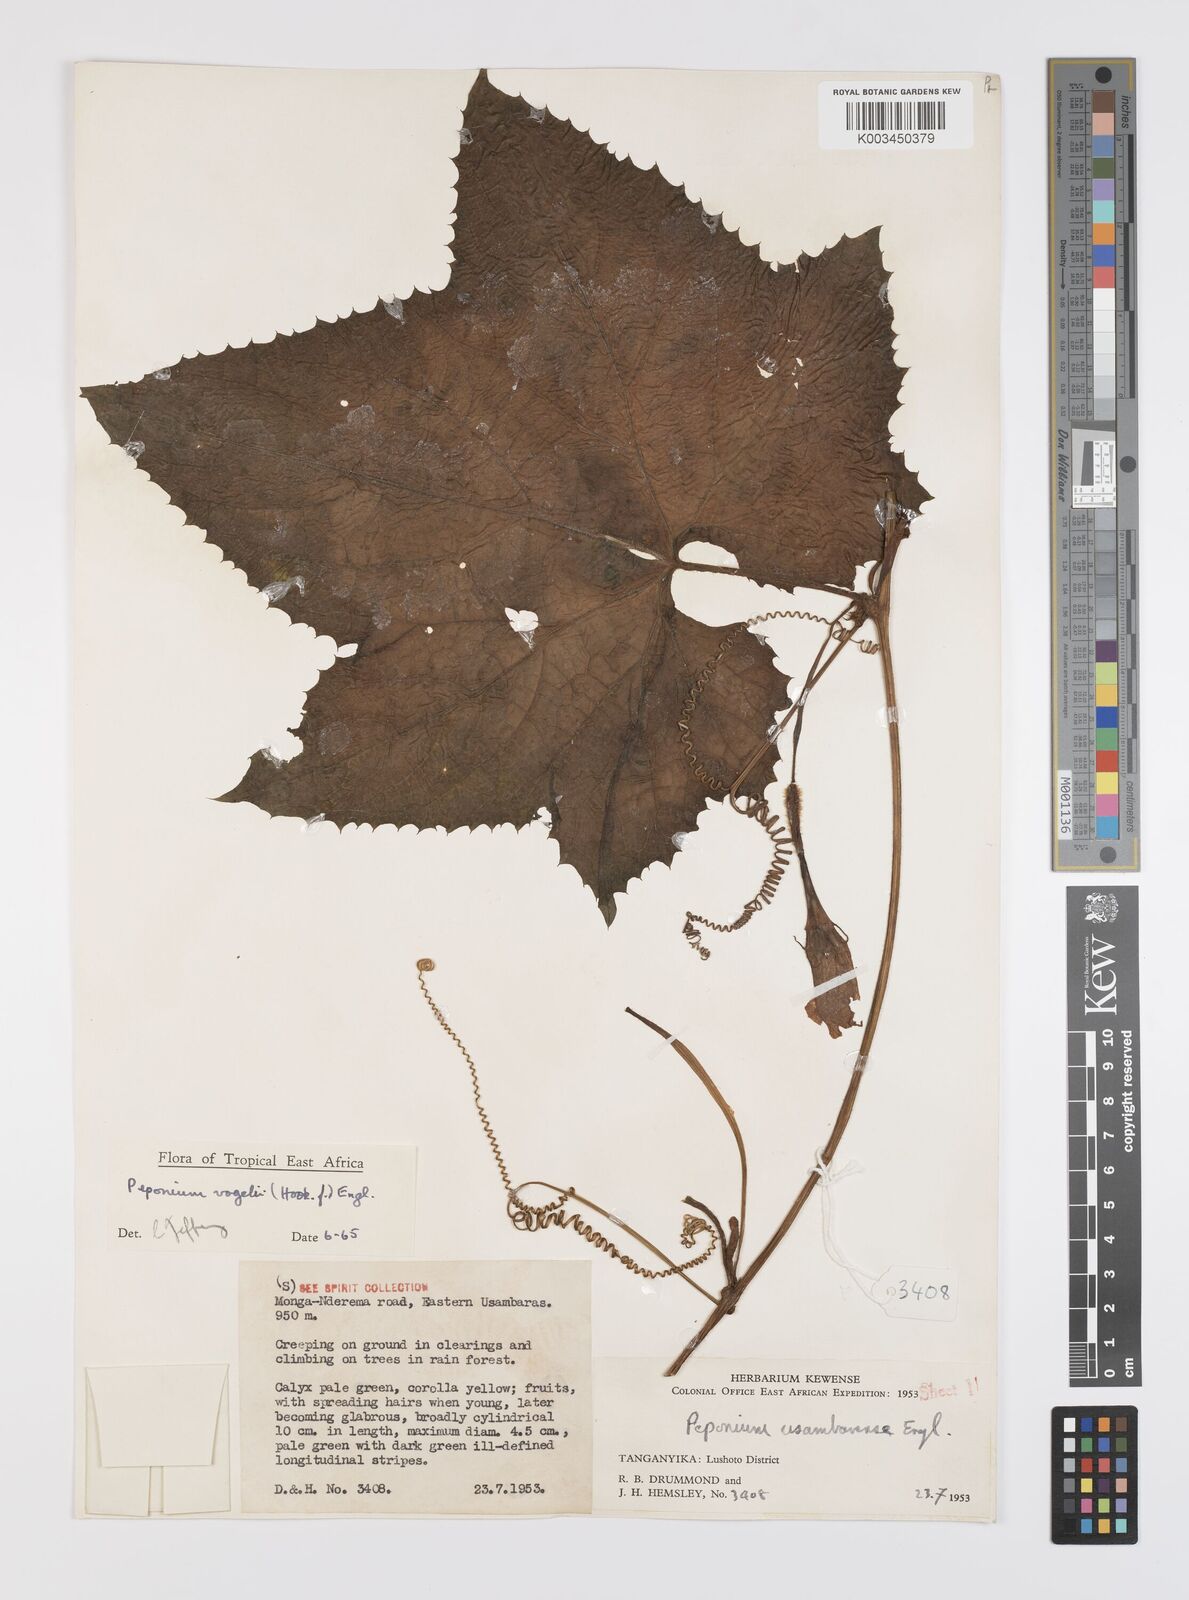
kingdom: Plantae
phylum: Tracheophyta
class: Magnoliopsida
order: Cucurbitales
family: Cucurbitaceae
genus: Peponium
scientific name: Peponium vogelii
